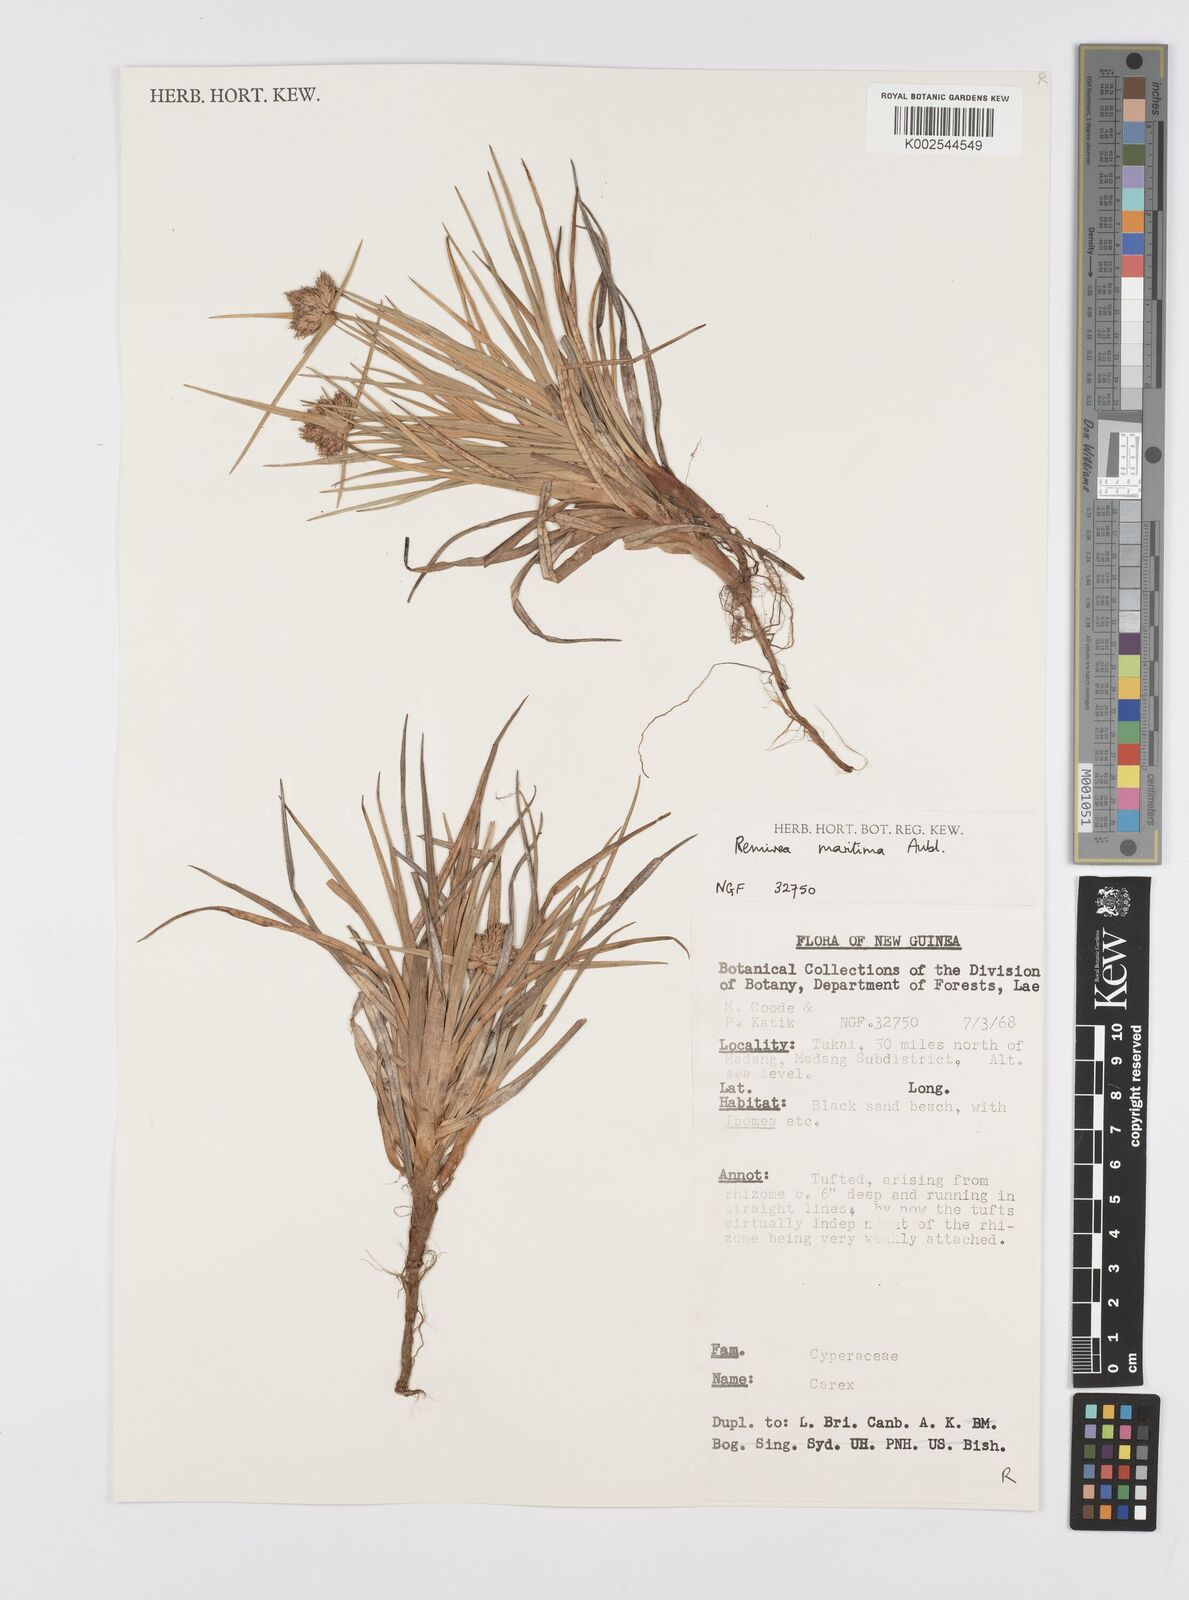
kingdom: Plantae
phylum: Tracheophyta
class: Liliopsida
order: Poales
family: Cyperaceae
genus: Cyperus
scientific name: Cyperus
